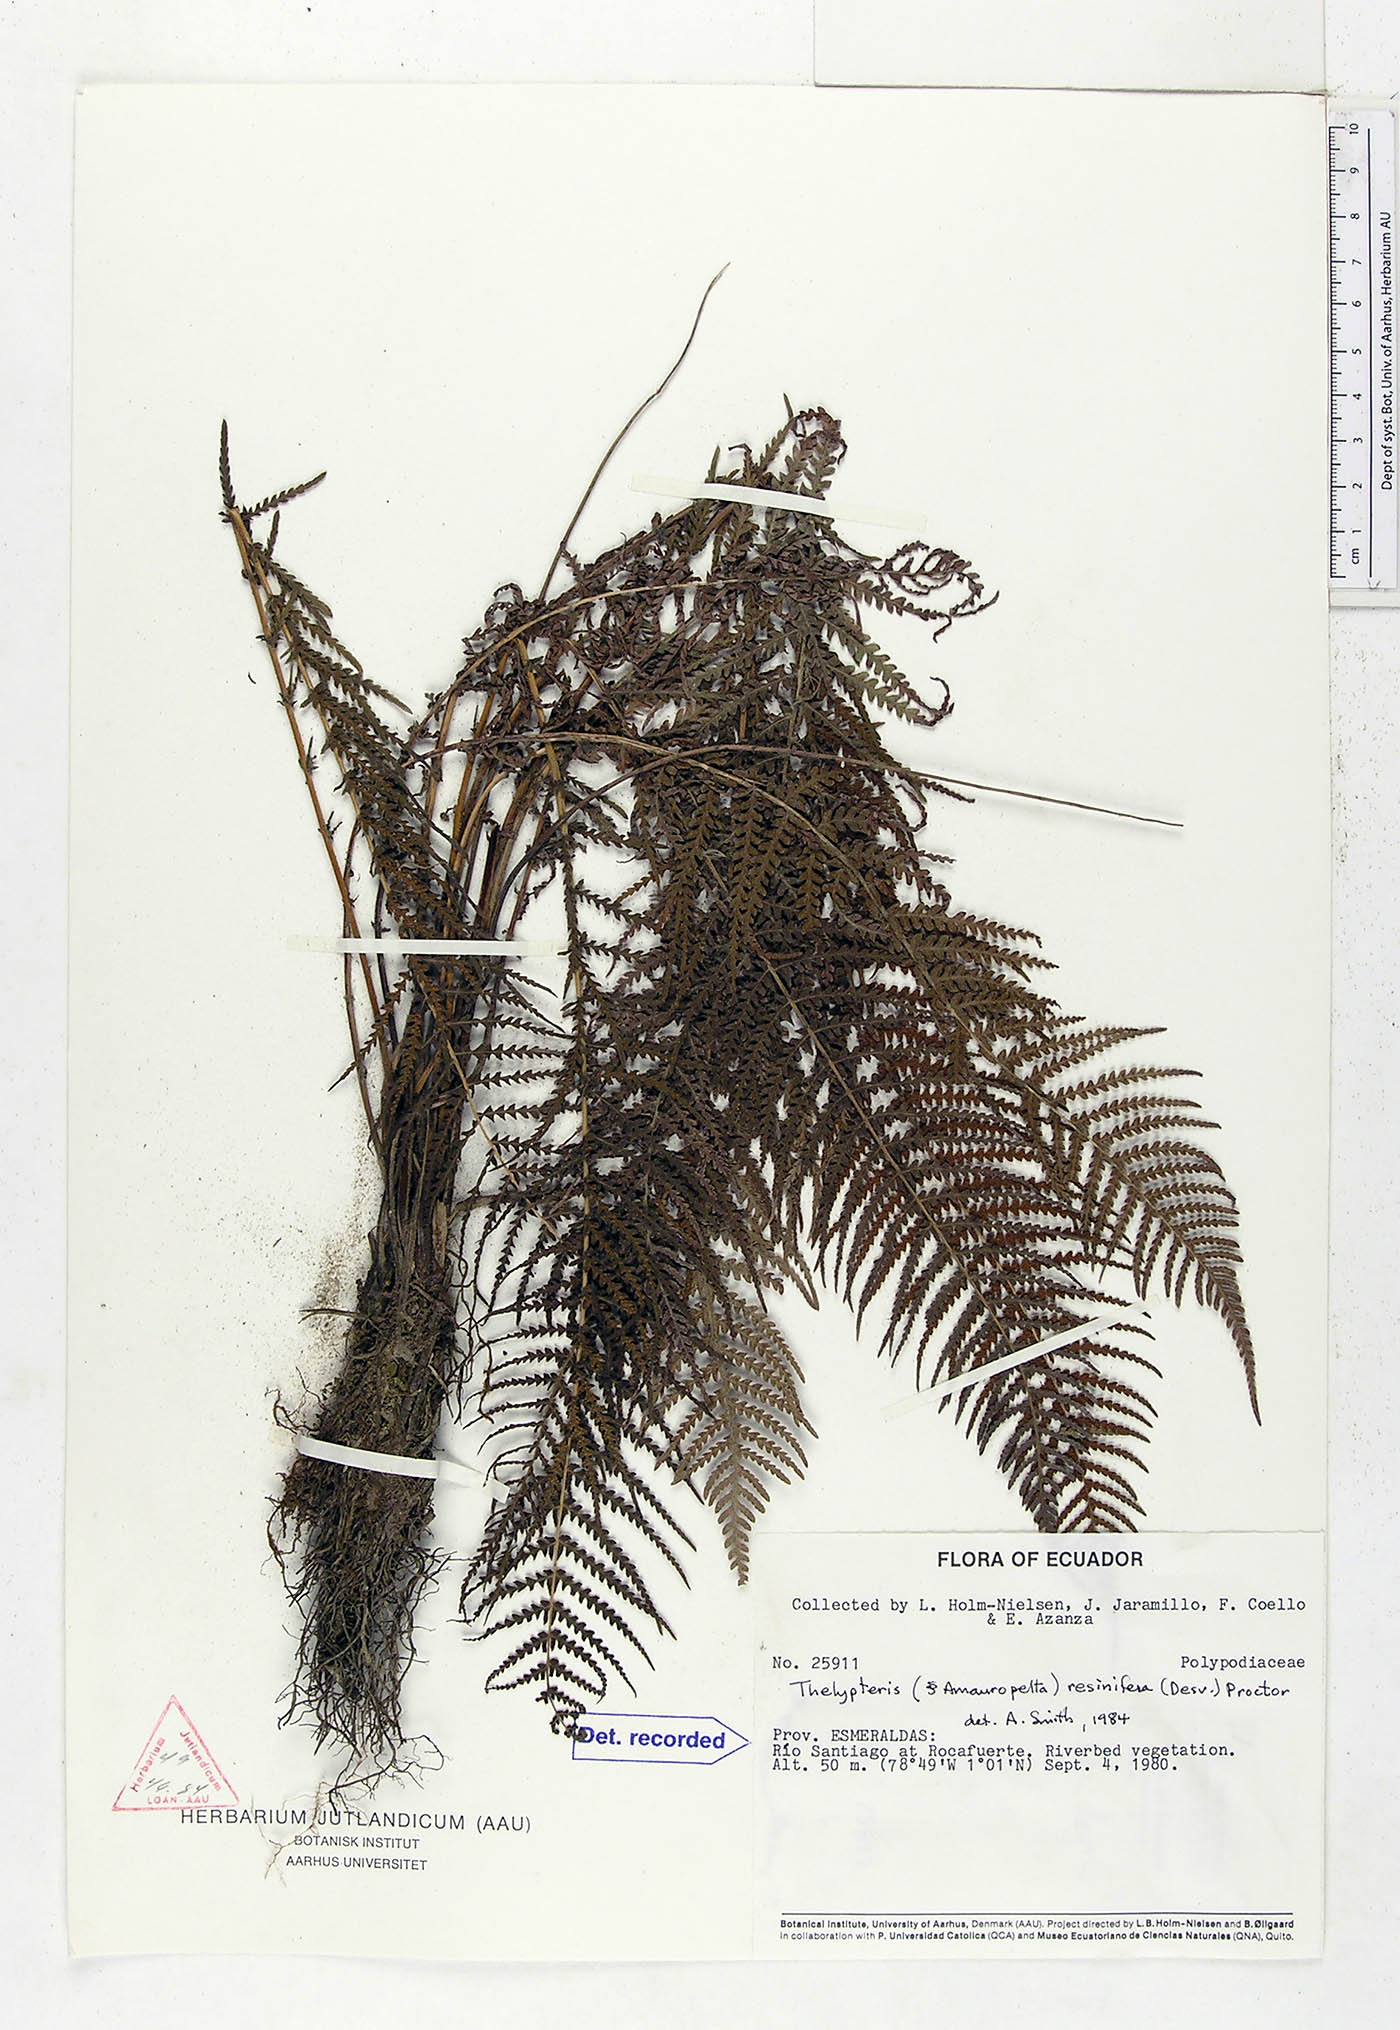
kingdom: Plantae
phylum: Tracheophyta
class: Polypodiopsida
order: Polypodiales
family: Thelypteridaceae
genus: Amauropelta
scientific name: Amauropelta resinifera
